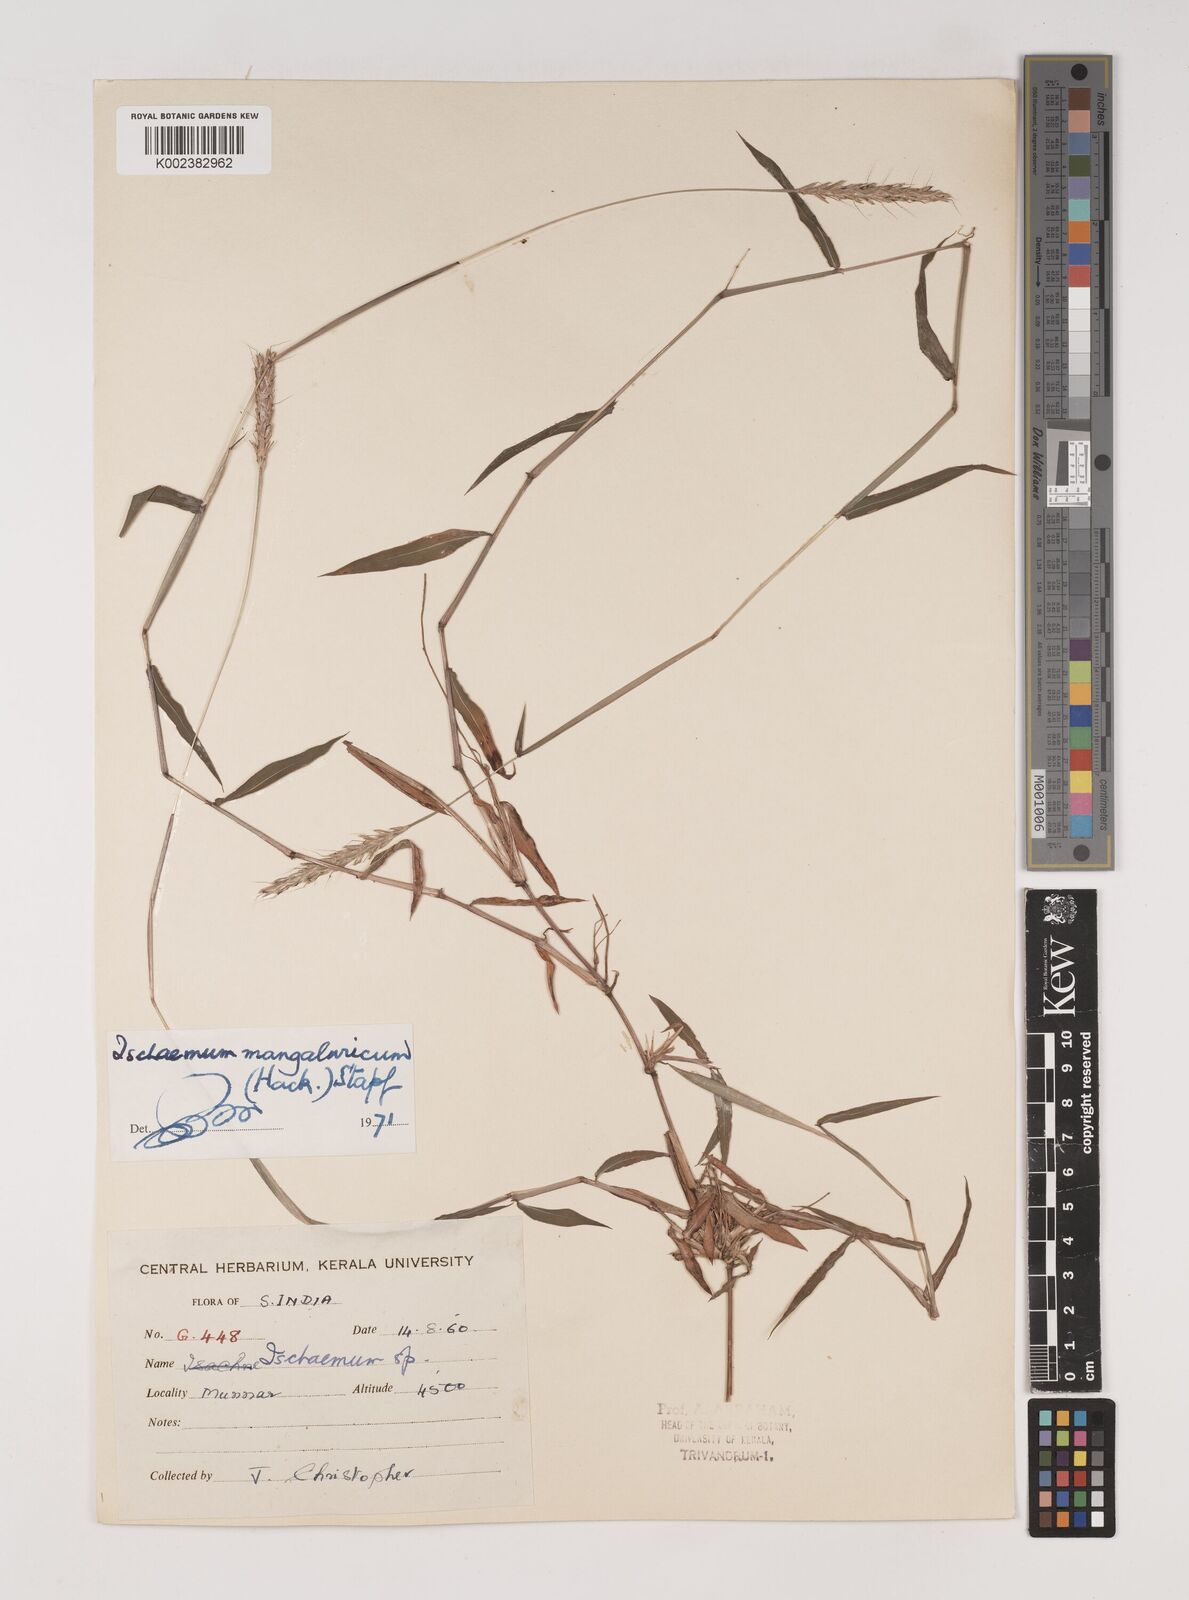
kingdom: Plantae
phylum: Tracheophyta
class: Liliopsida
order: Poales
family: Poaceae
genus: Ischaemum
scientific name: Ischaemum barbatum
